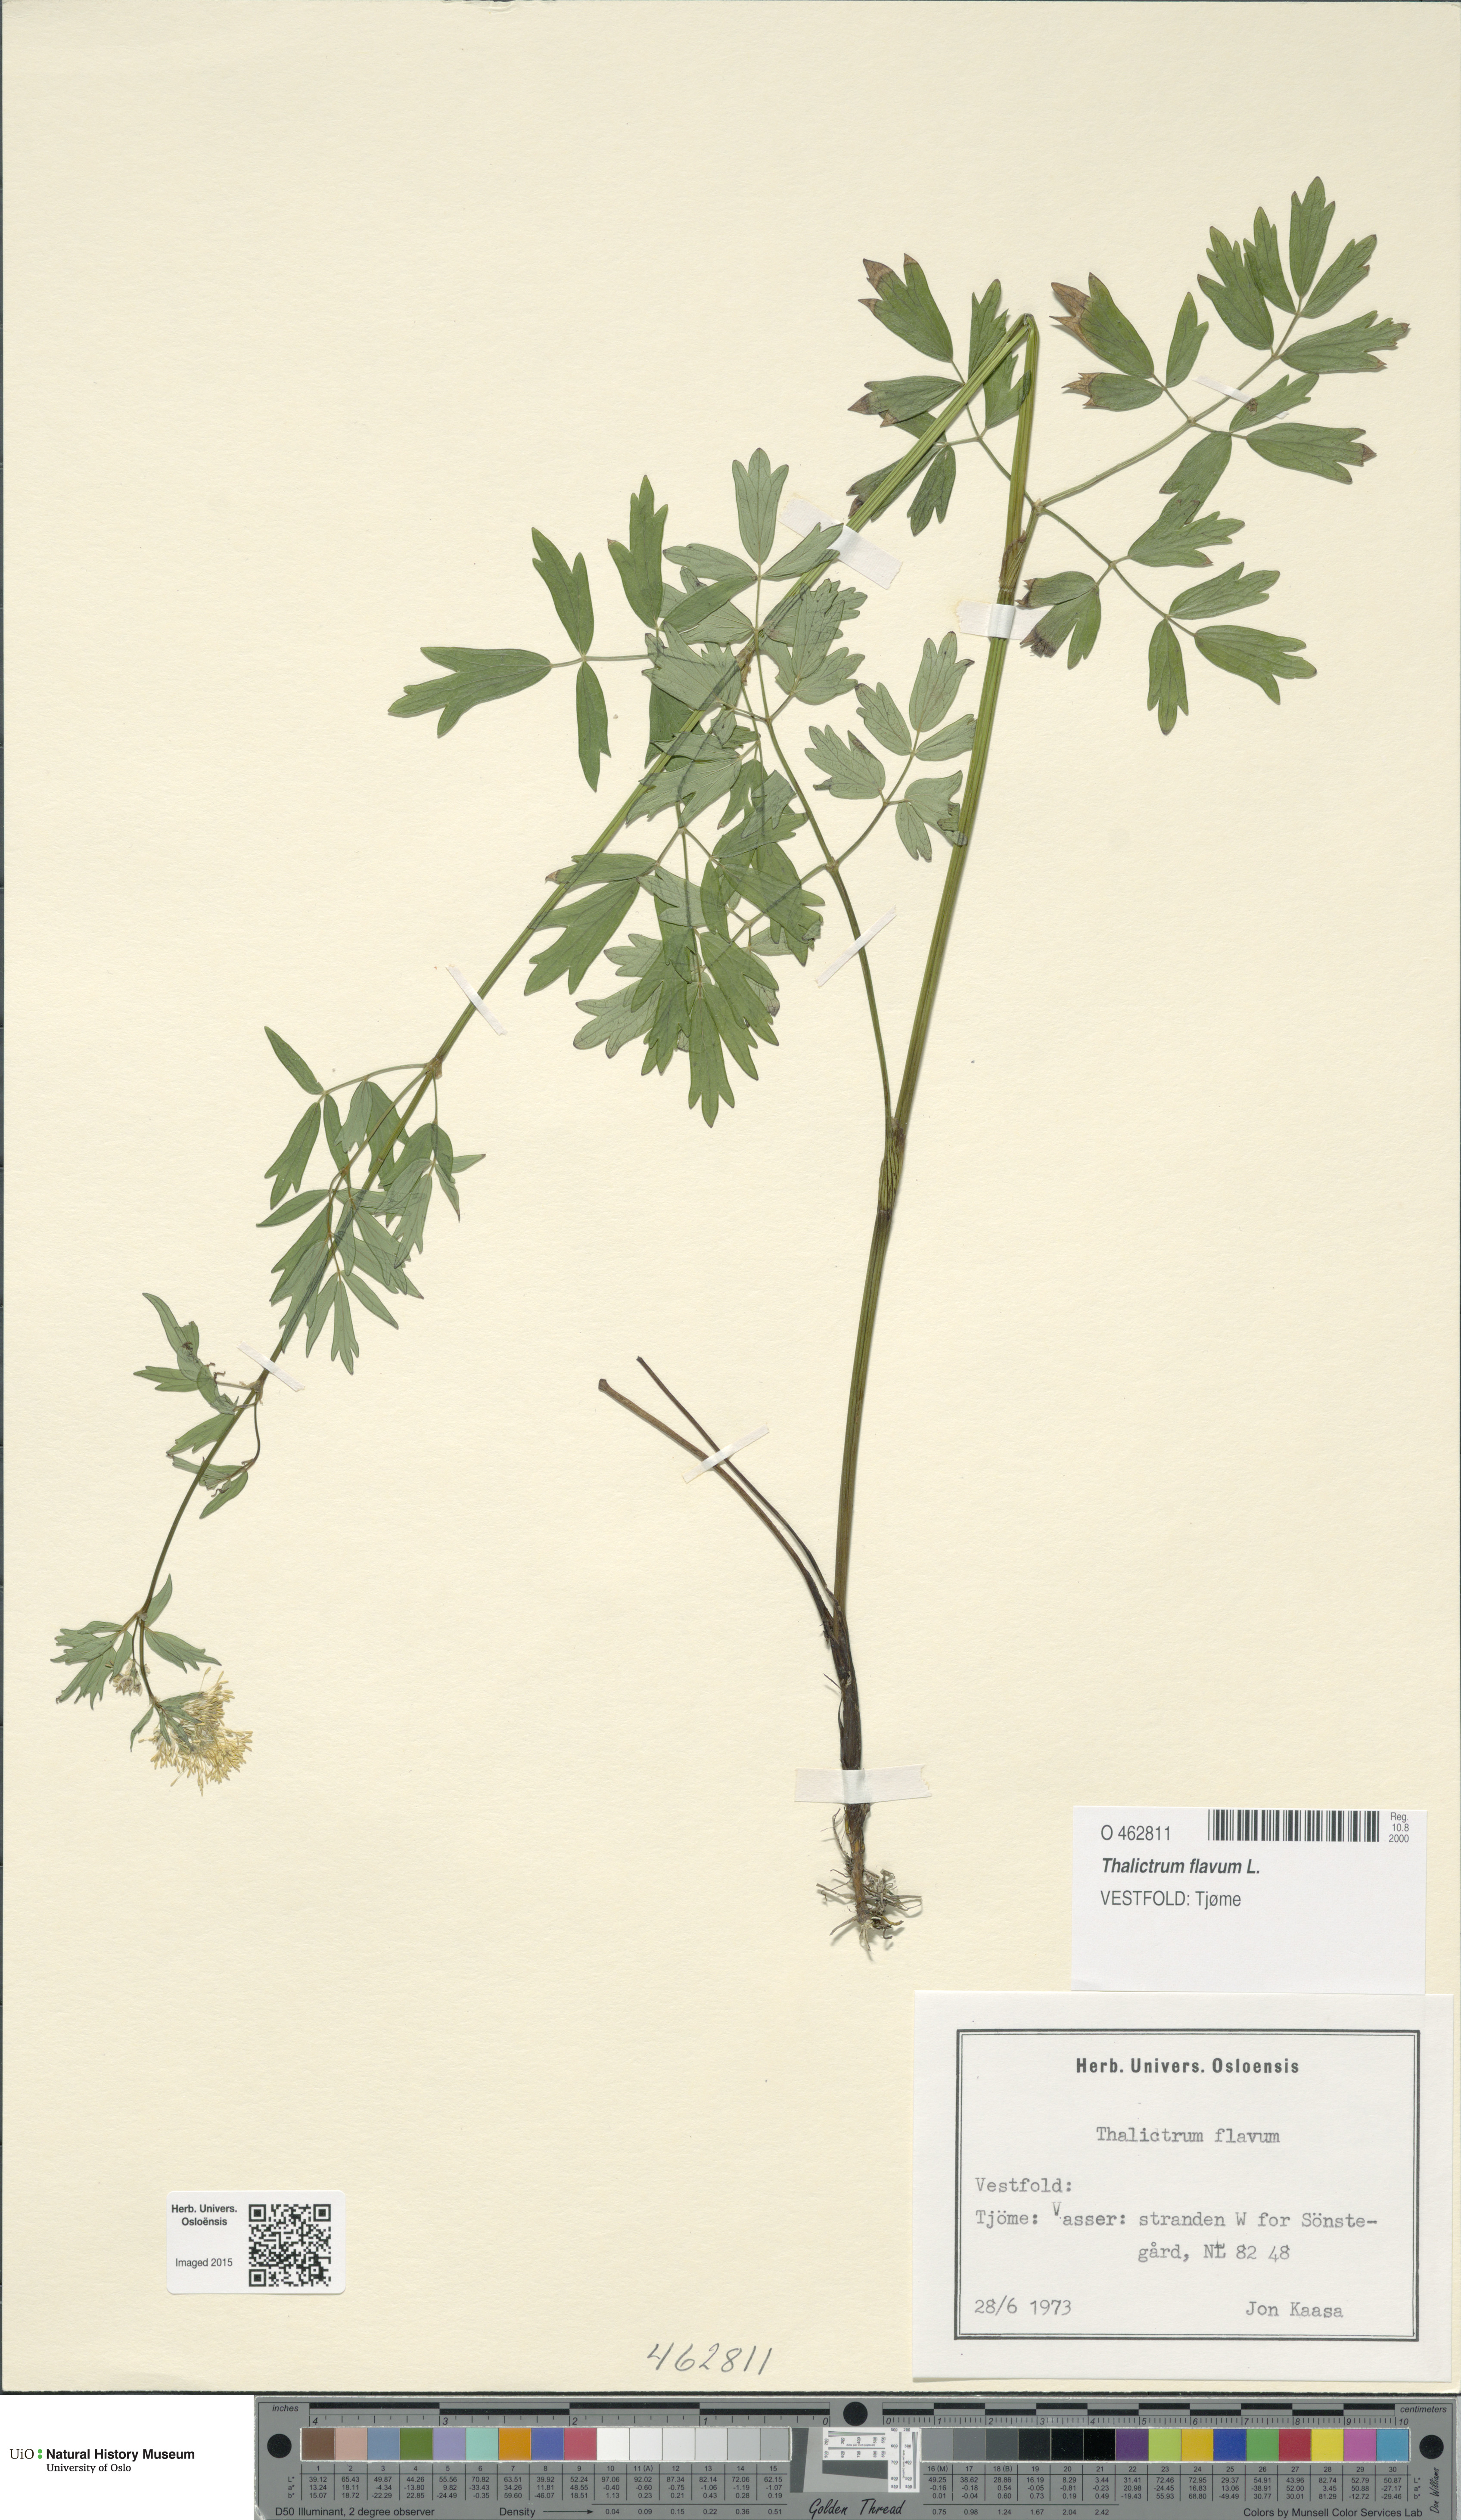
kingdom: Plantae
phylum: Tracheophyta
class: Magnoliopsida
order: Ranunculales
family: Ranunculaceae
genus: Thalictrum
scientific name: Thalictrum flavum
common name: Common meadow-rue
